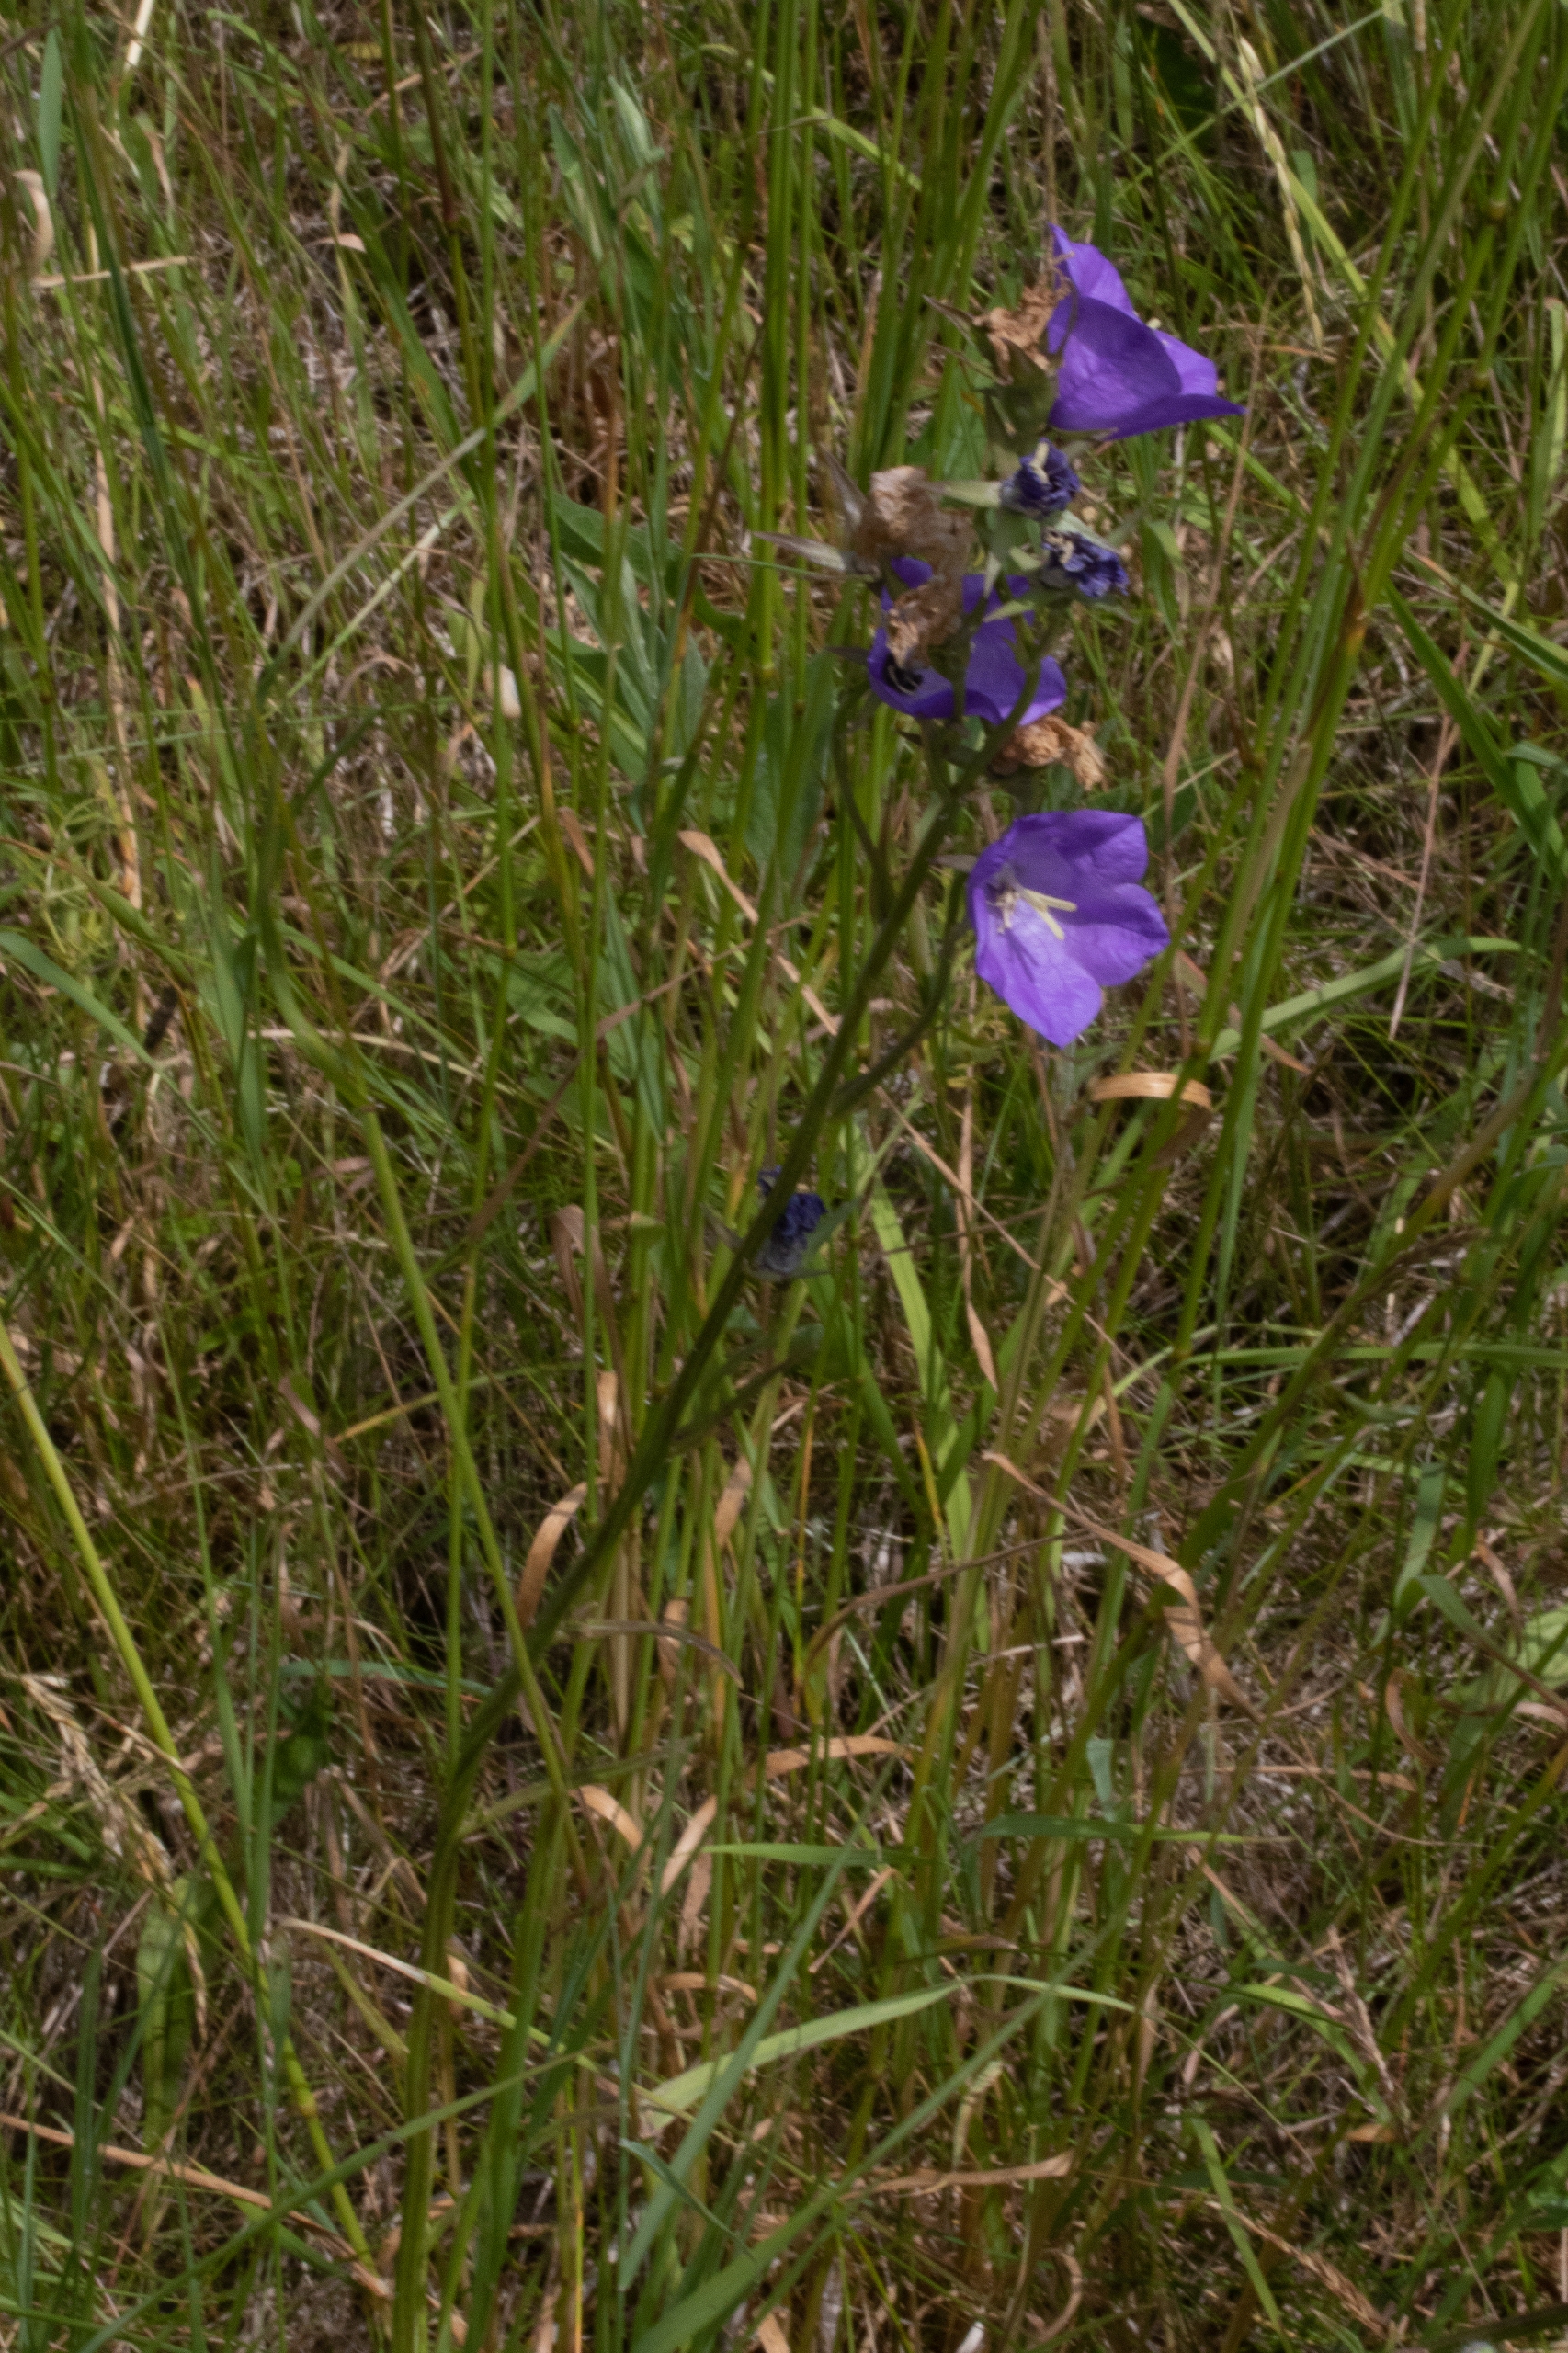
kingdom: Plantae
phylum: Tracheophyta
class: Magnoliopsida
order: Asterales
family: Campanulaceae
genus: Campanula
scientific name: Campanula persicifolia
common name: Smalbladet klokke
